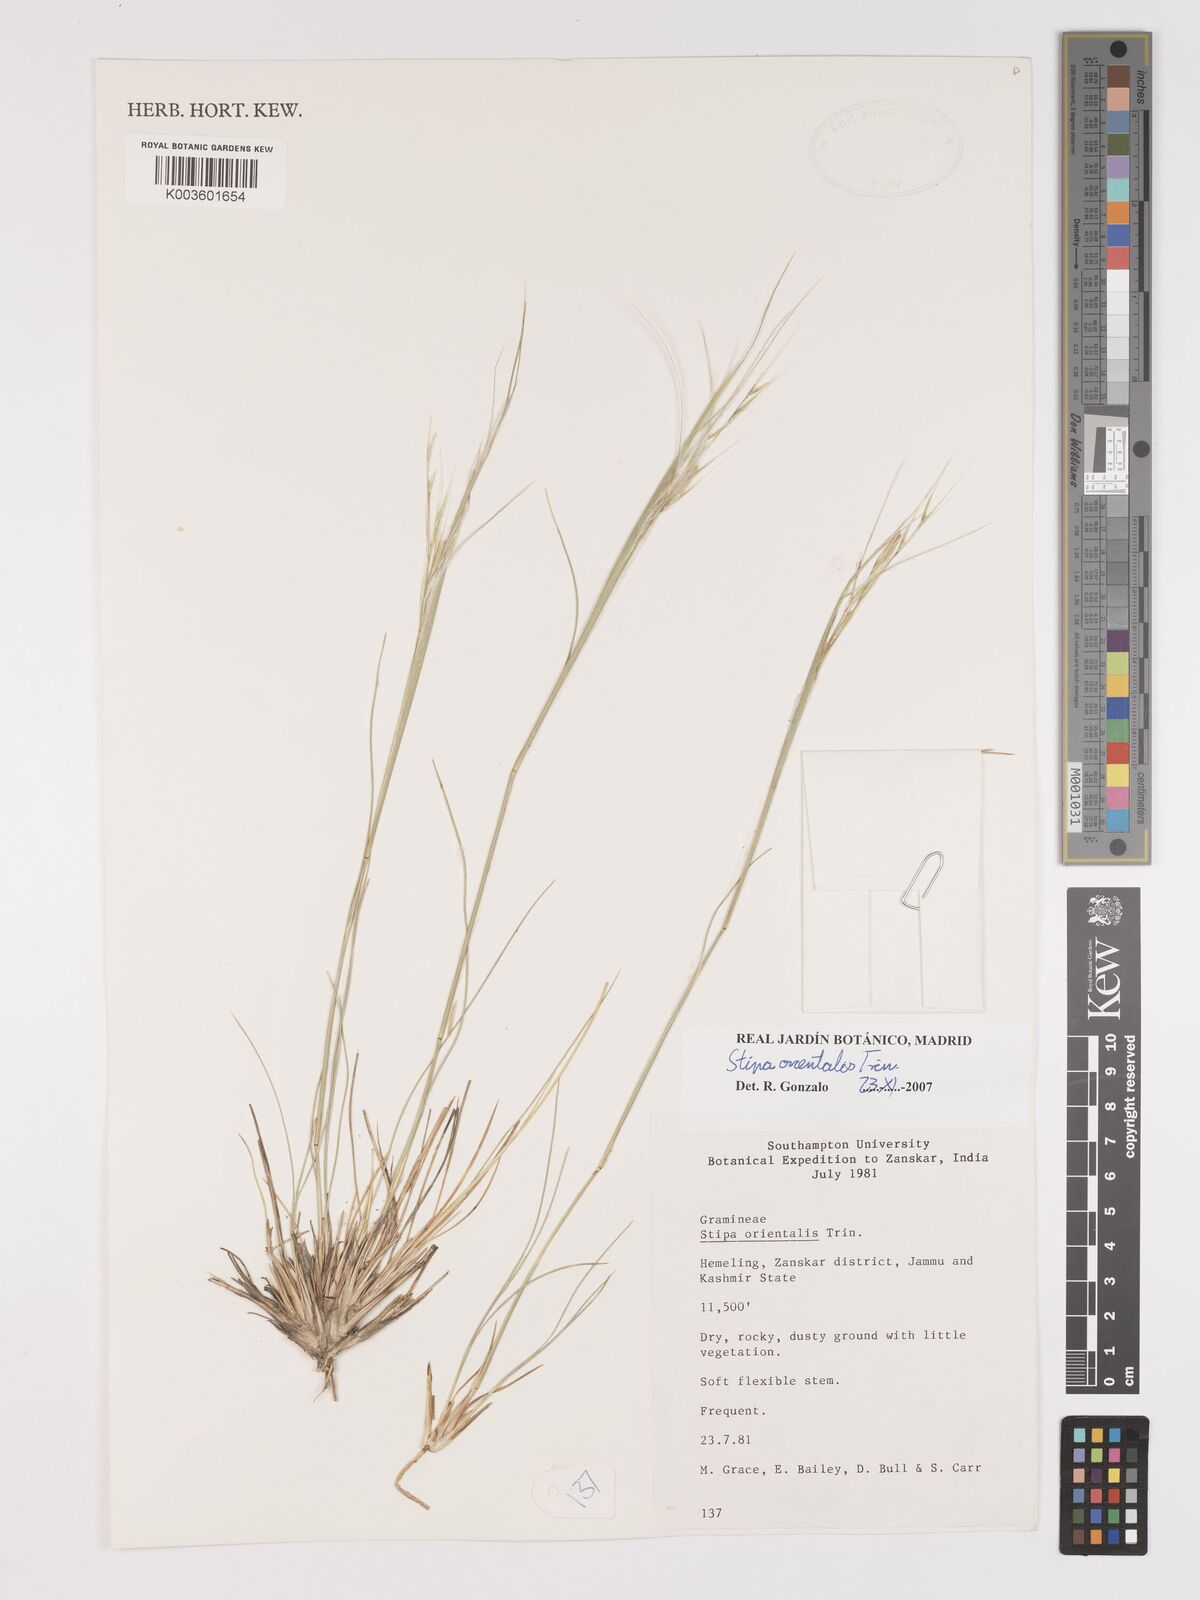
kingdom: Plantae
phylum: Tracheophyta
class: Liliopsida
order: Poales
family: Poaceae
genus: Stipa
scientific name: Stipa orientalis
